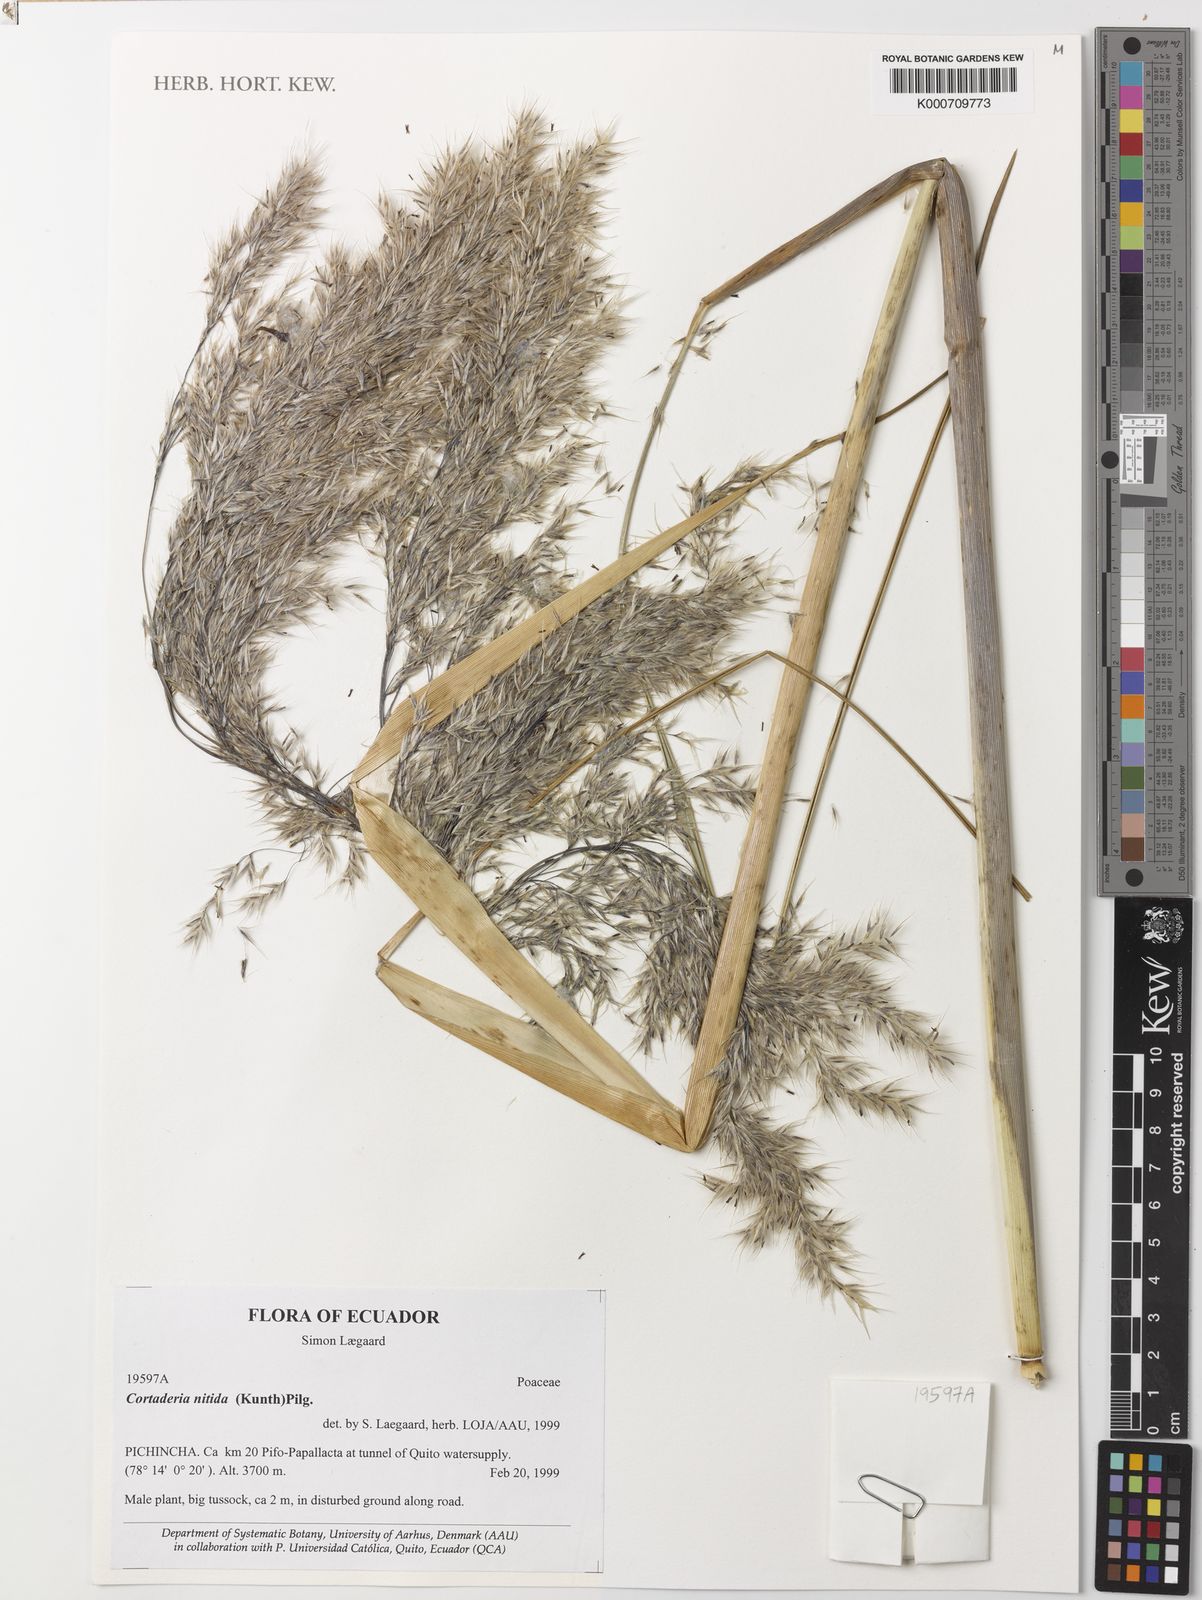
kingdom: Plantae
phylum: Tracheophyta
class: Liliopsida
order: Poales
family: Poaceae
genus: Cortaderia
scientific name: Cortaderia nitida
